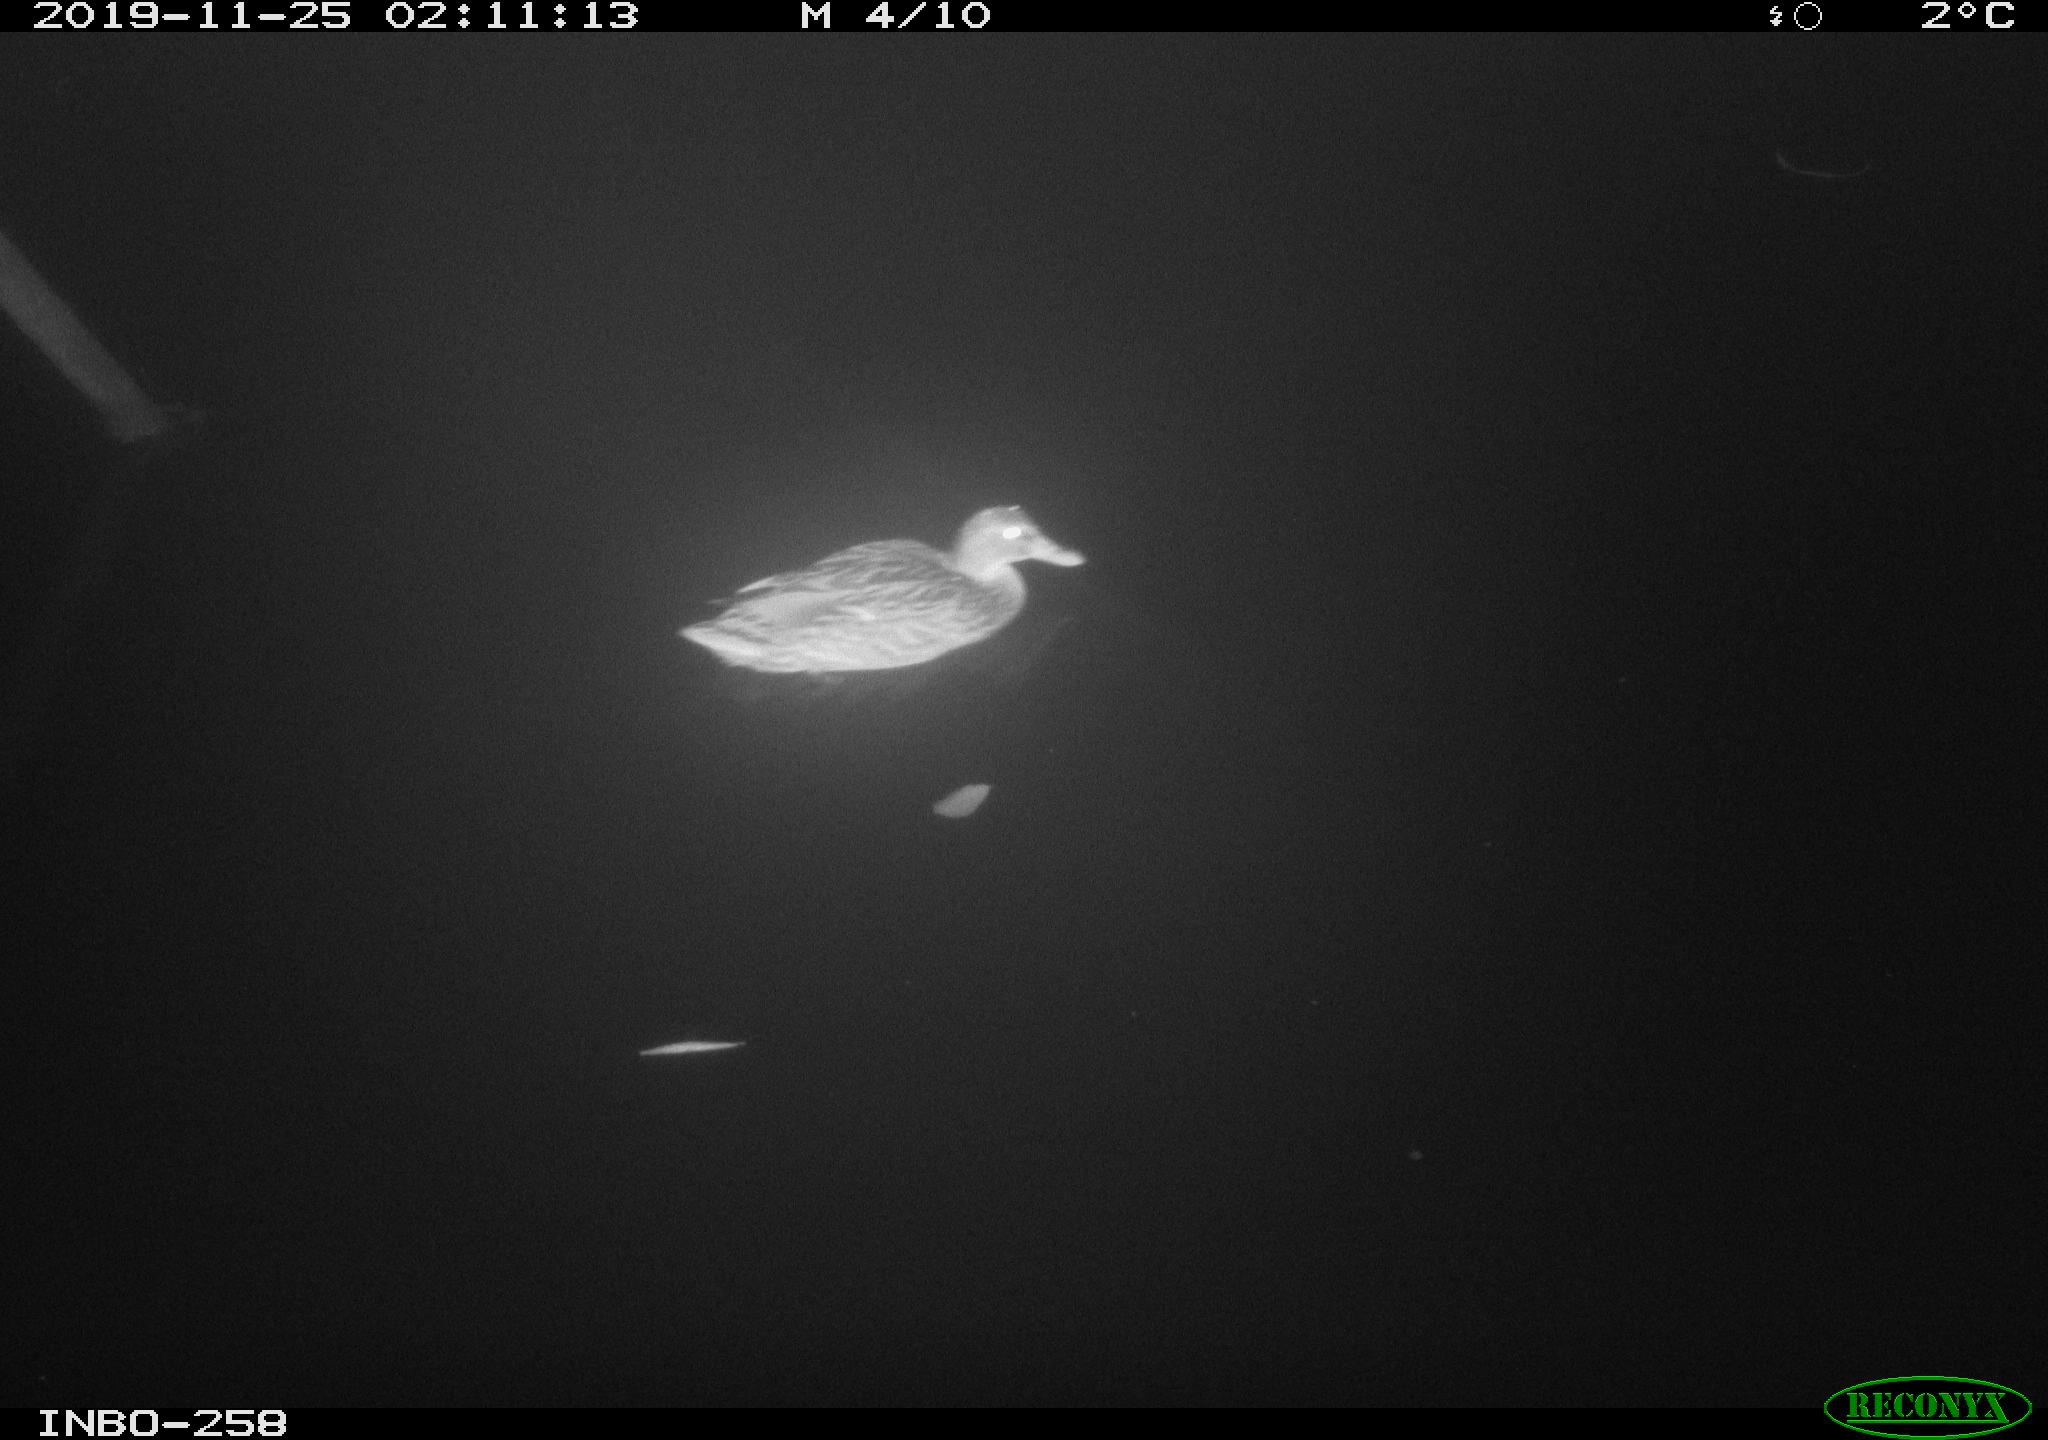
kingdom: Animalia
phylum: Chordata
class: Aves
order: Anseriformes
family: Anatidae
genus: Anas
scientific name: Anas platyrhynchos
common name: Mallard
